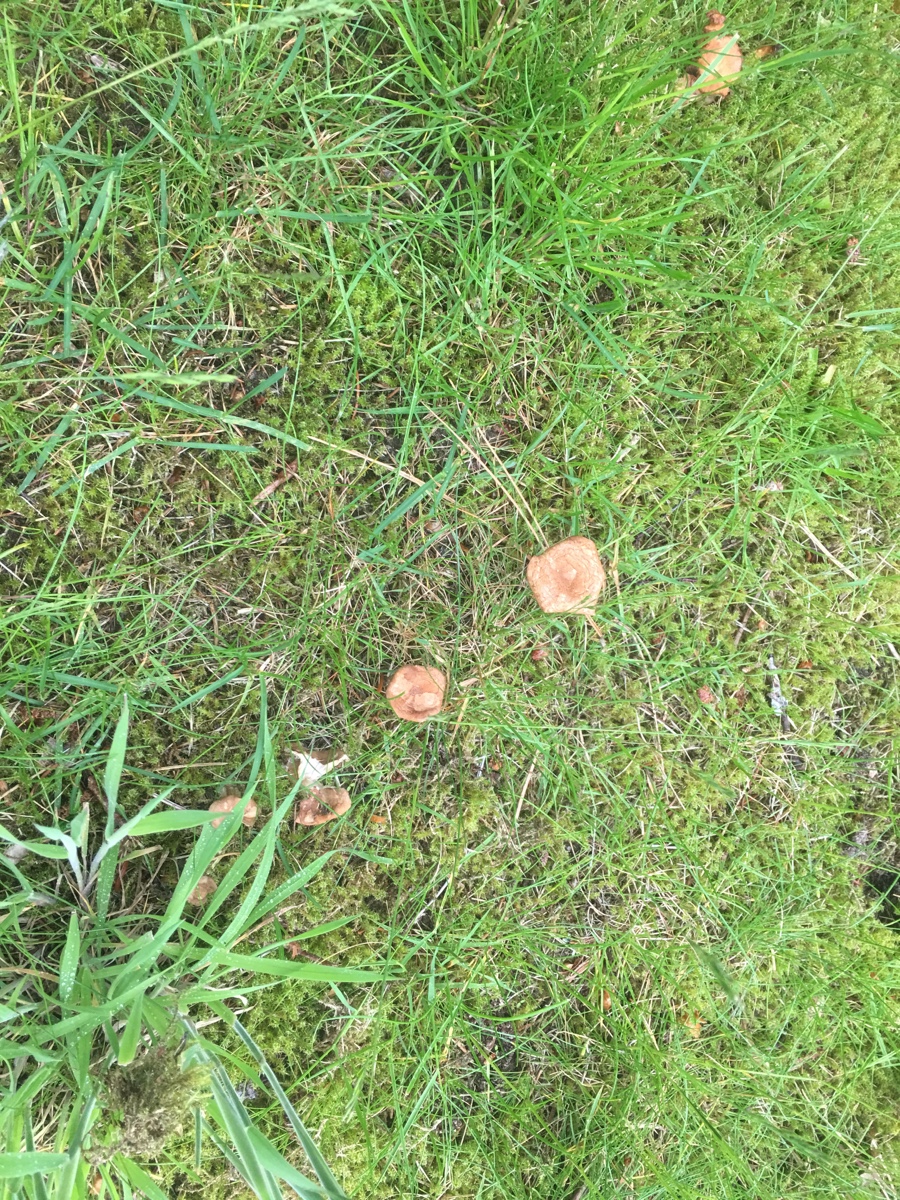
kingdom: Fungi
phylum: Basidiomycota
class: Agaricomycetes
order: Agaricales
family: Tricholomataceae
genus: Infundibulicybe
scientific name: Infundibulicybe squamulosa
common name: småskællet tragthat
